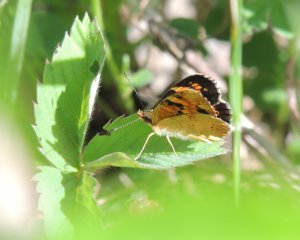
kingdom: Animalia
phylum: Arthropoda
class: Insecta
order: Lepidoptera
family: Nymphalidae
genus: Phyciodes
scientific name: Phyciodes batesii
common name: Tawny Crescent
